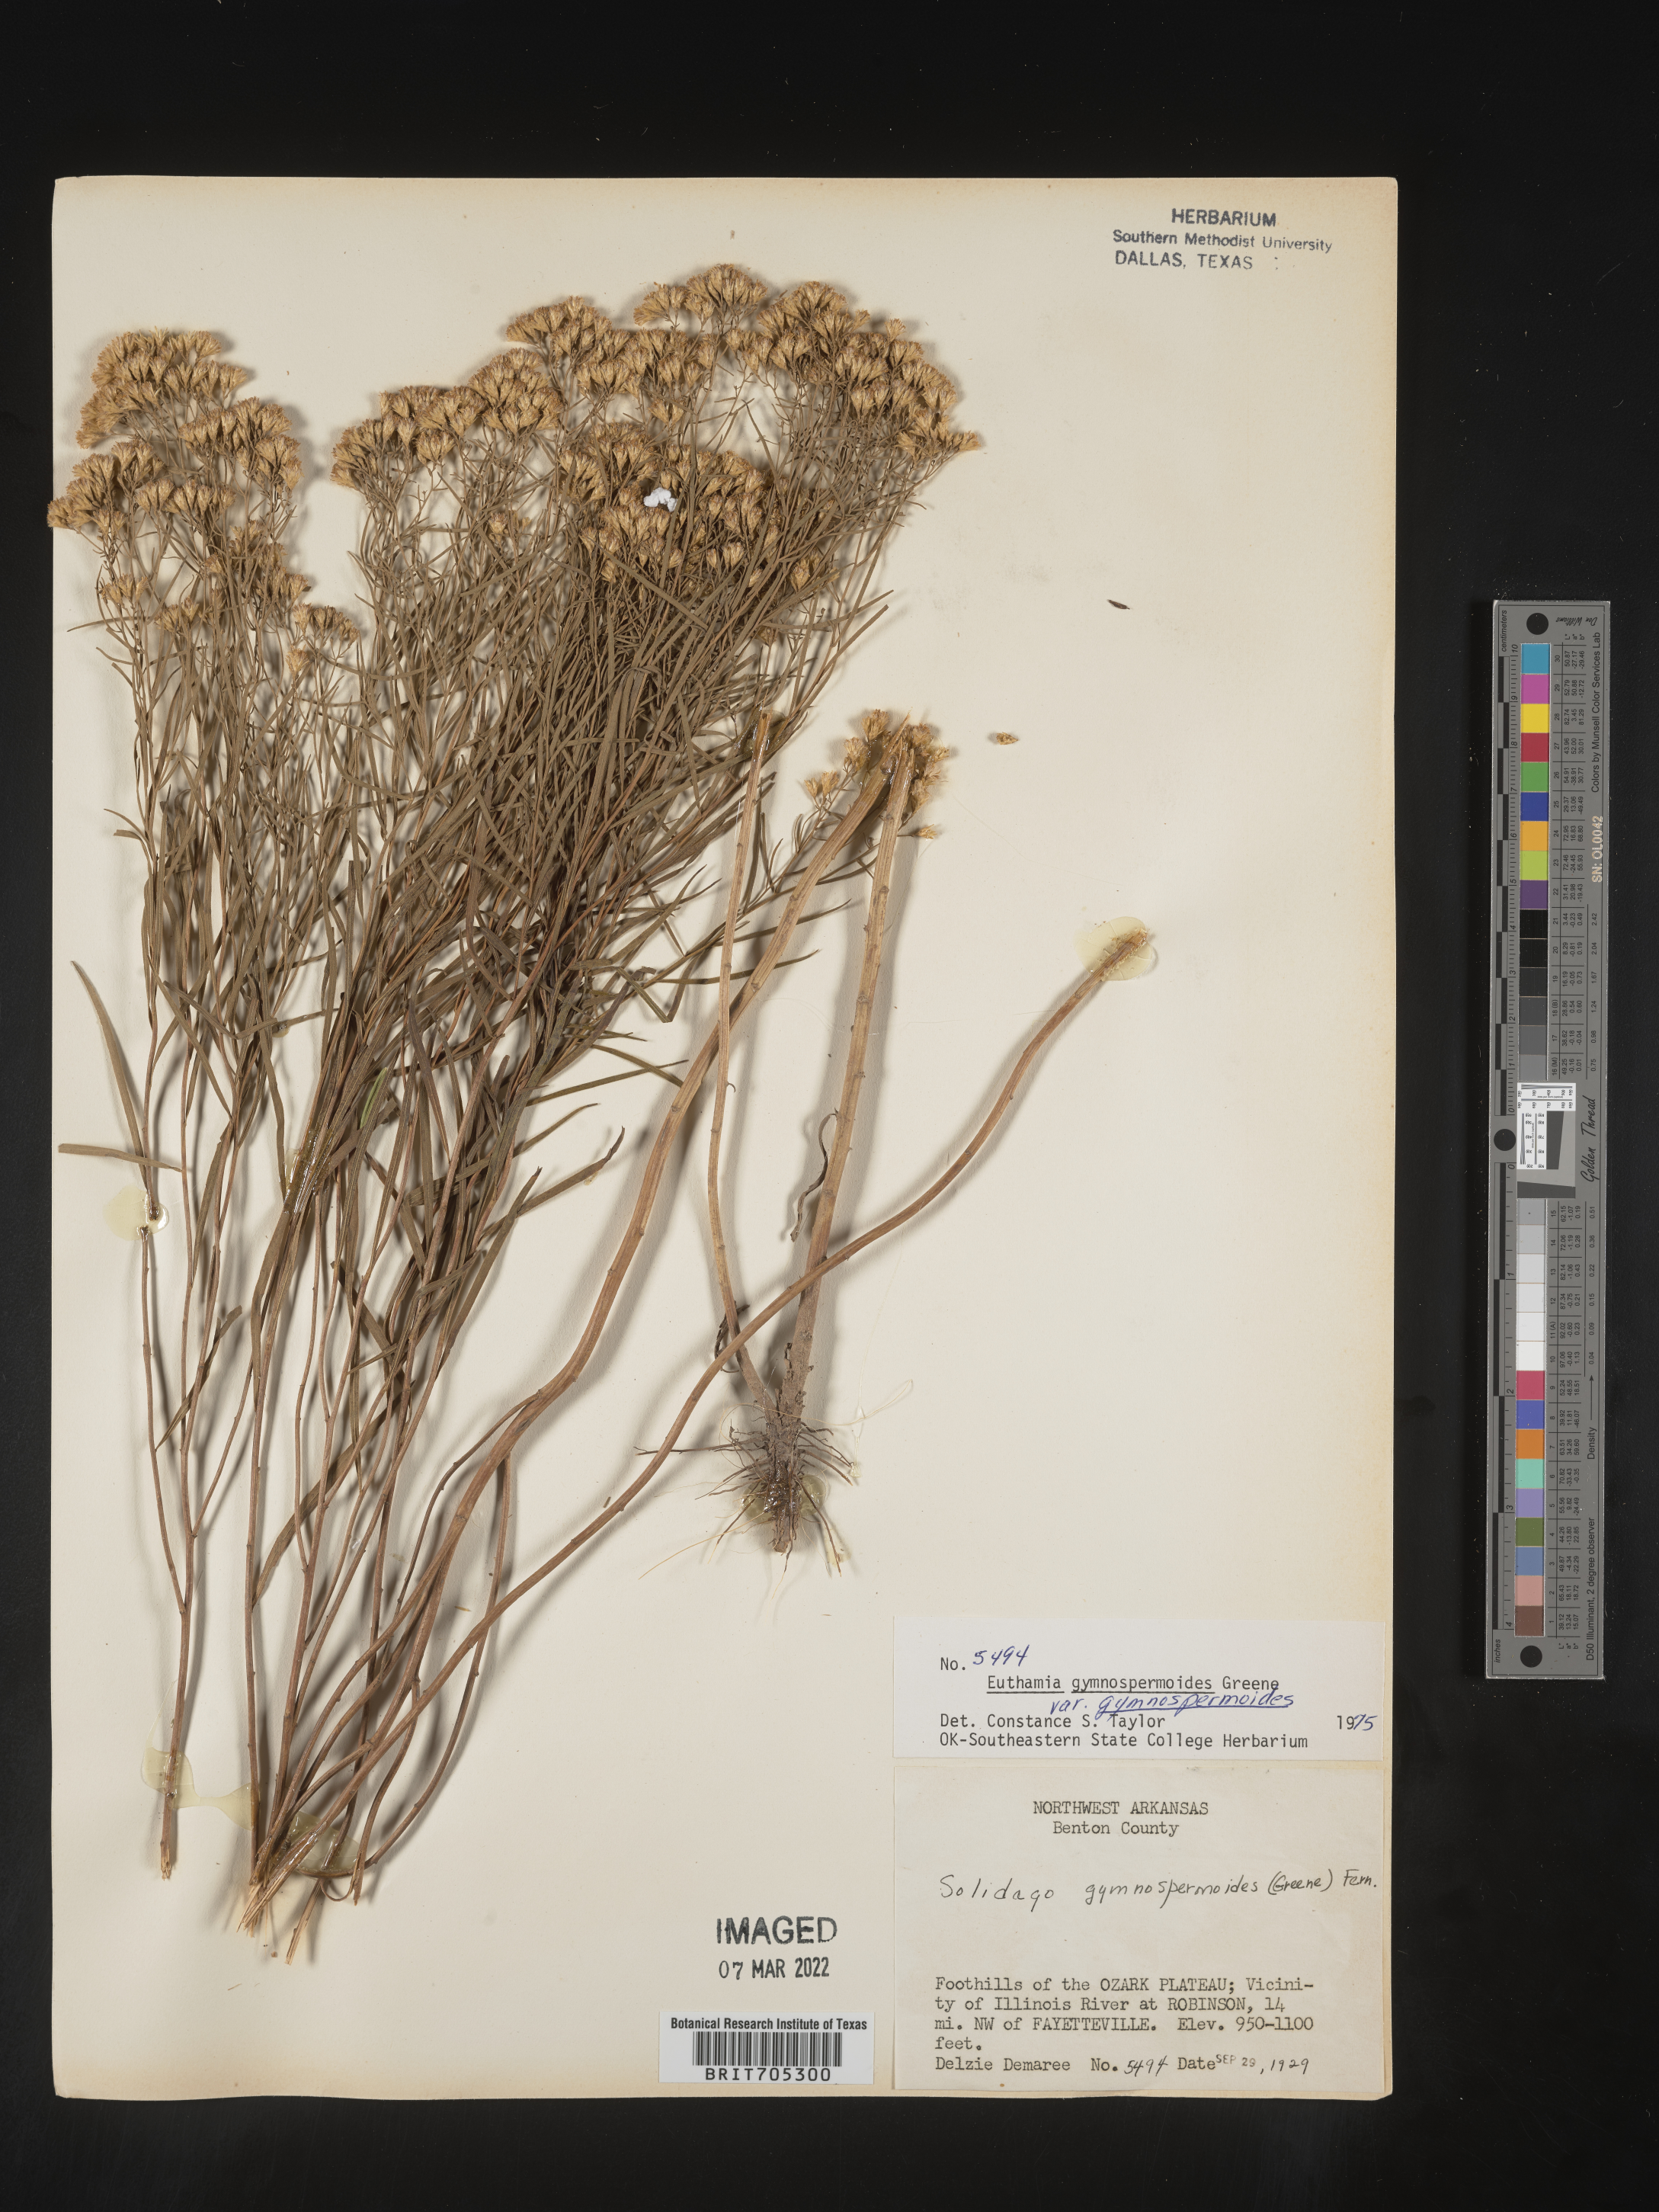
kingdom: Plantae
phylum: Tracheophyta
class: Magnoliopsida
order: Asterales
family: Asteraceae
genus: Euthamia
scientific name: Euthamia gymnospermoides
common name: Great plains goldentop
